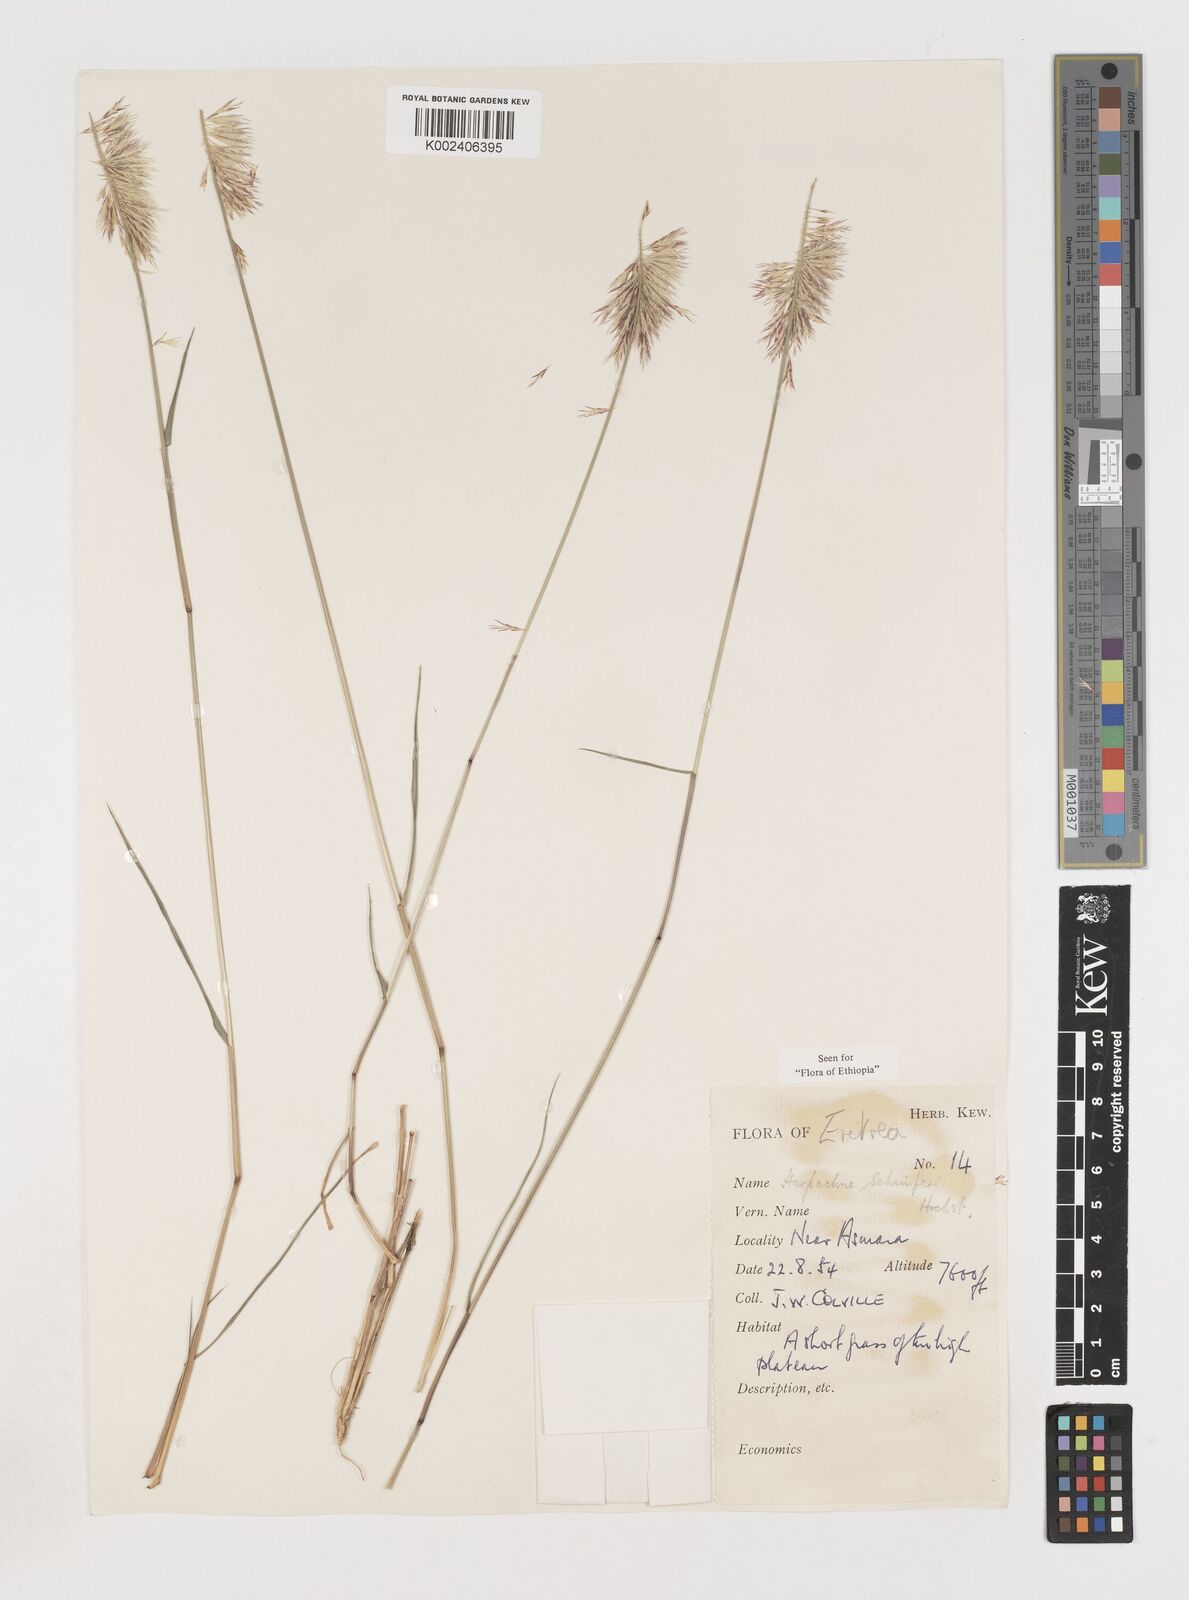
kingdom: Plantae
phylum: Tracheophyta
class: Liliopsida
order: Poales
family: Poaceae
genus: Harpachne
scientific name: Harpachne schimperi
